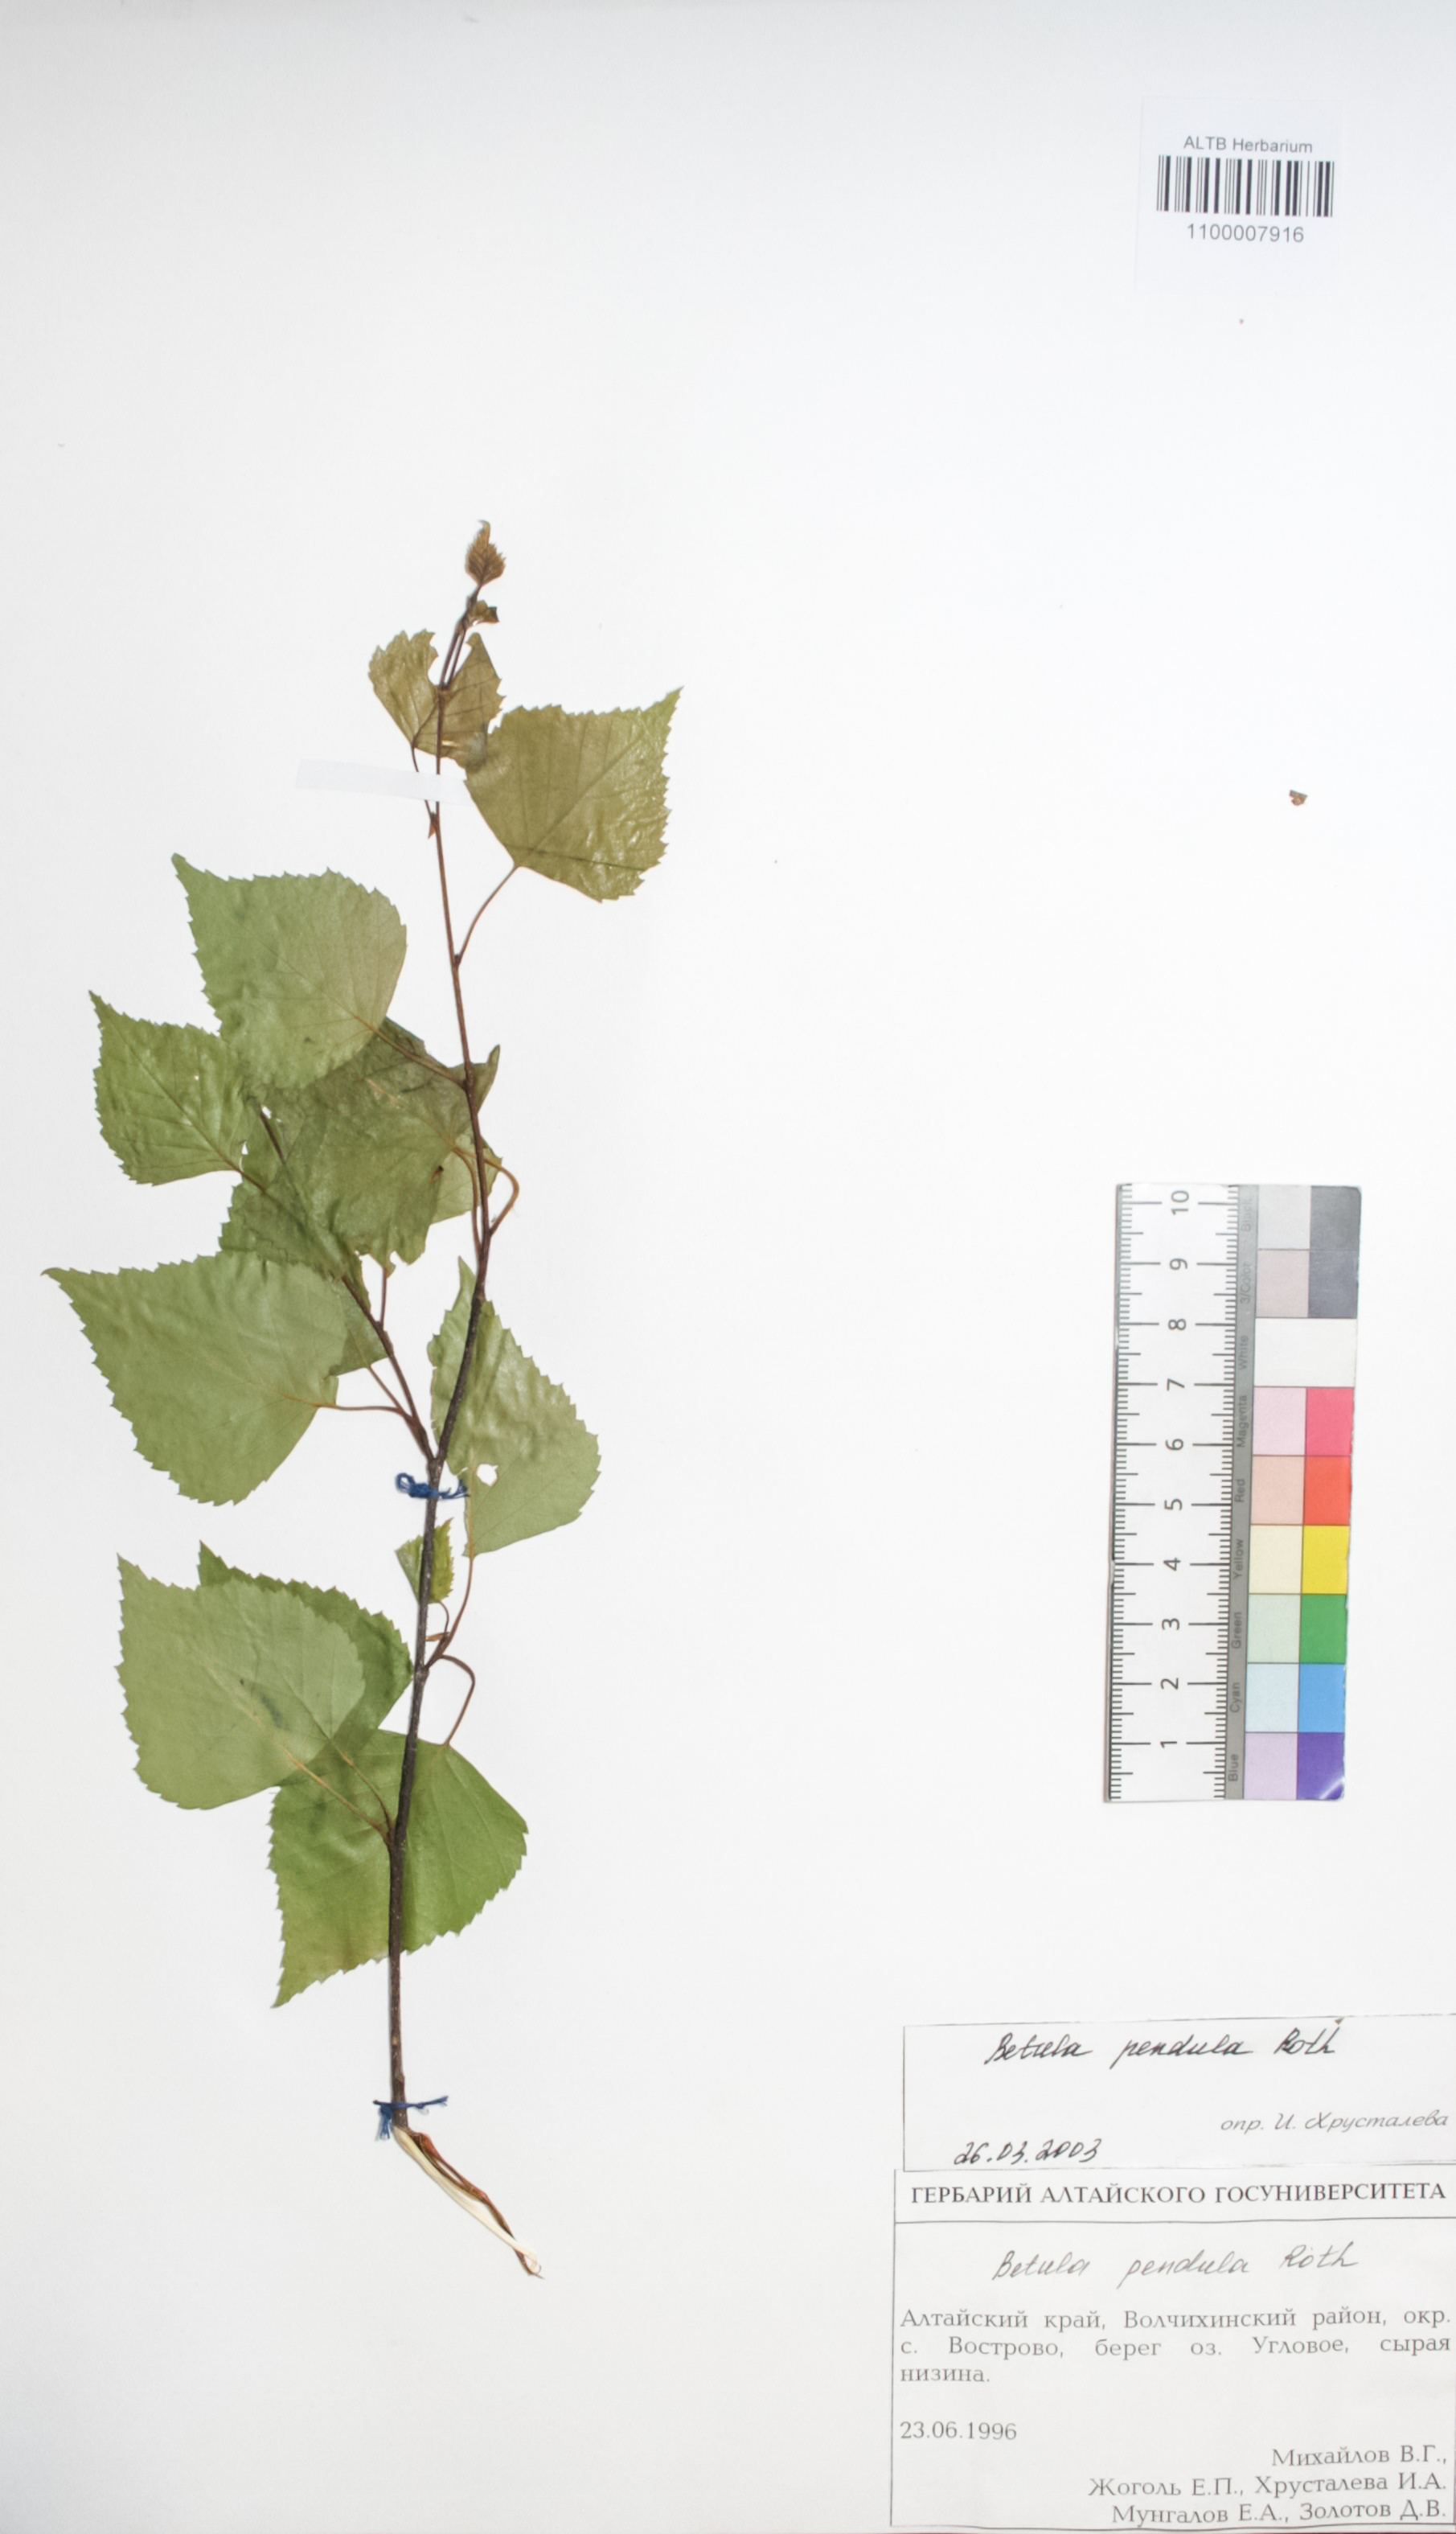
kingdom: Plantae
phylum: Tracheophyta
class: Magnoliopsida
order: Fagales
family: Betulaceae
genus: Betula
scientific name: Betula pendula
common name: Silver birch
